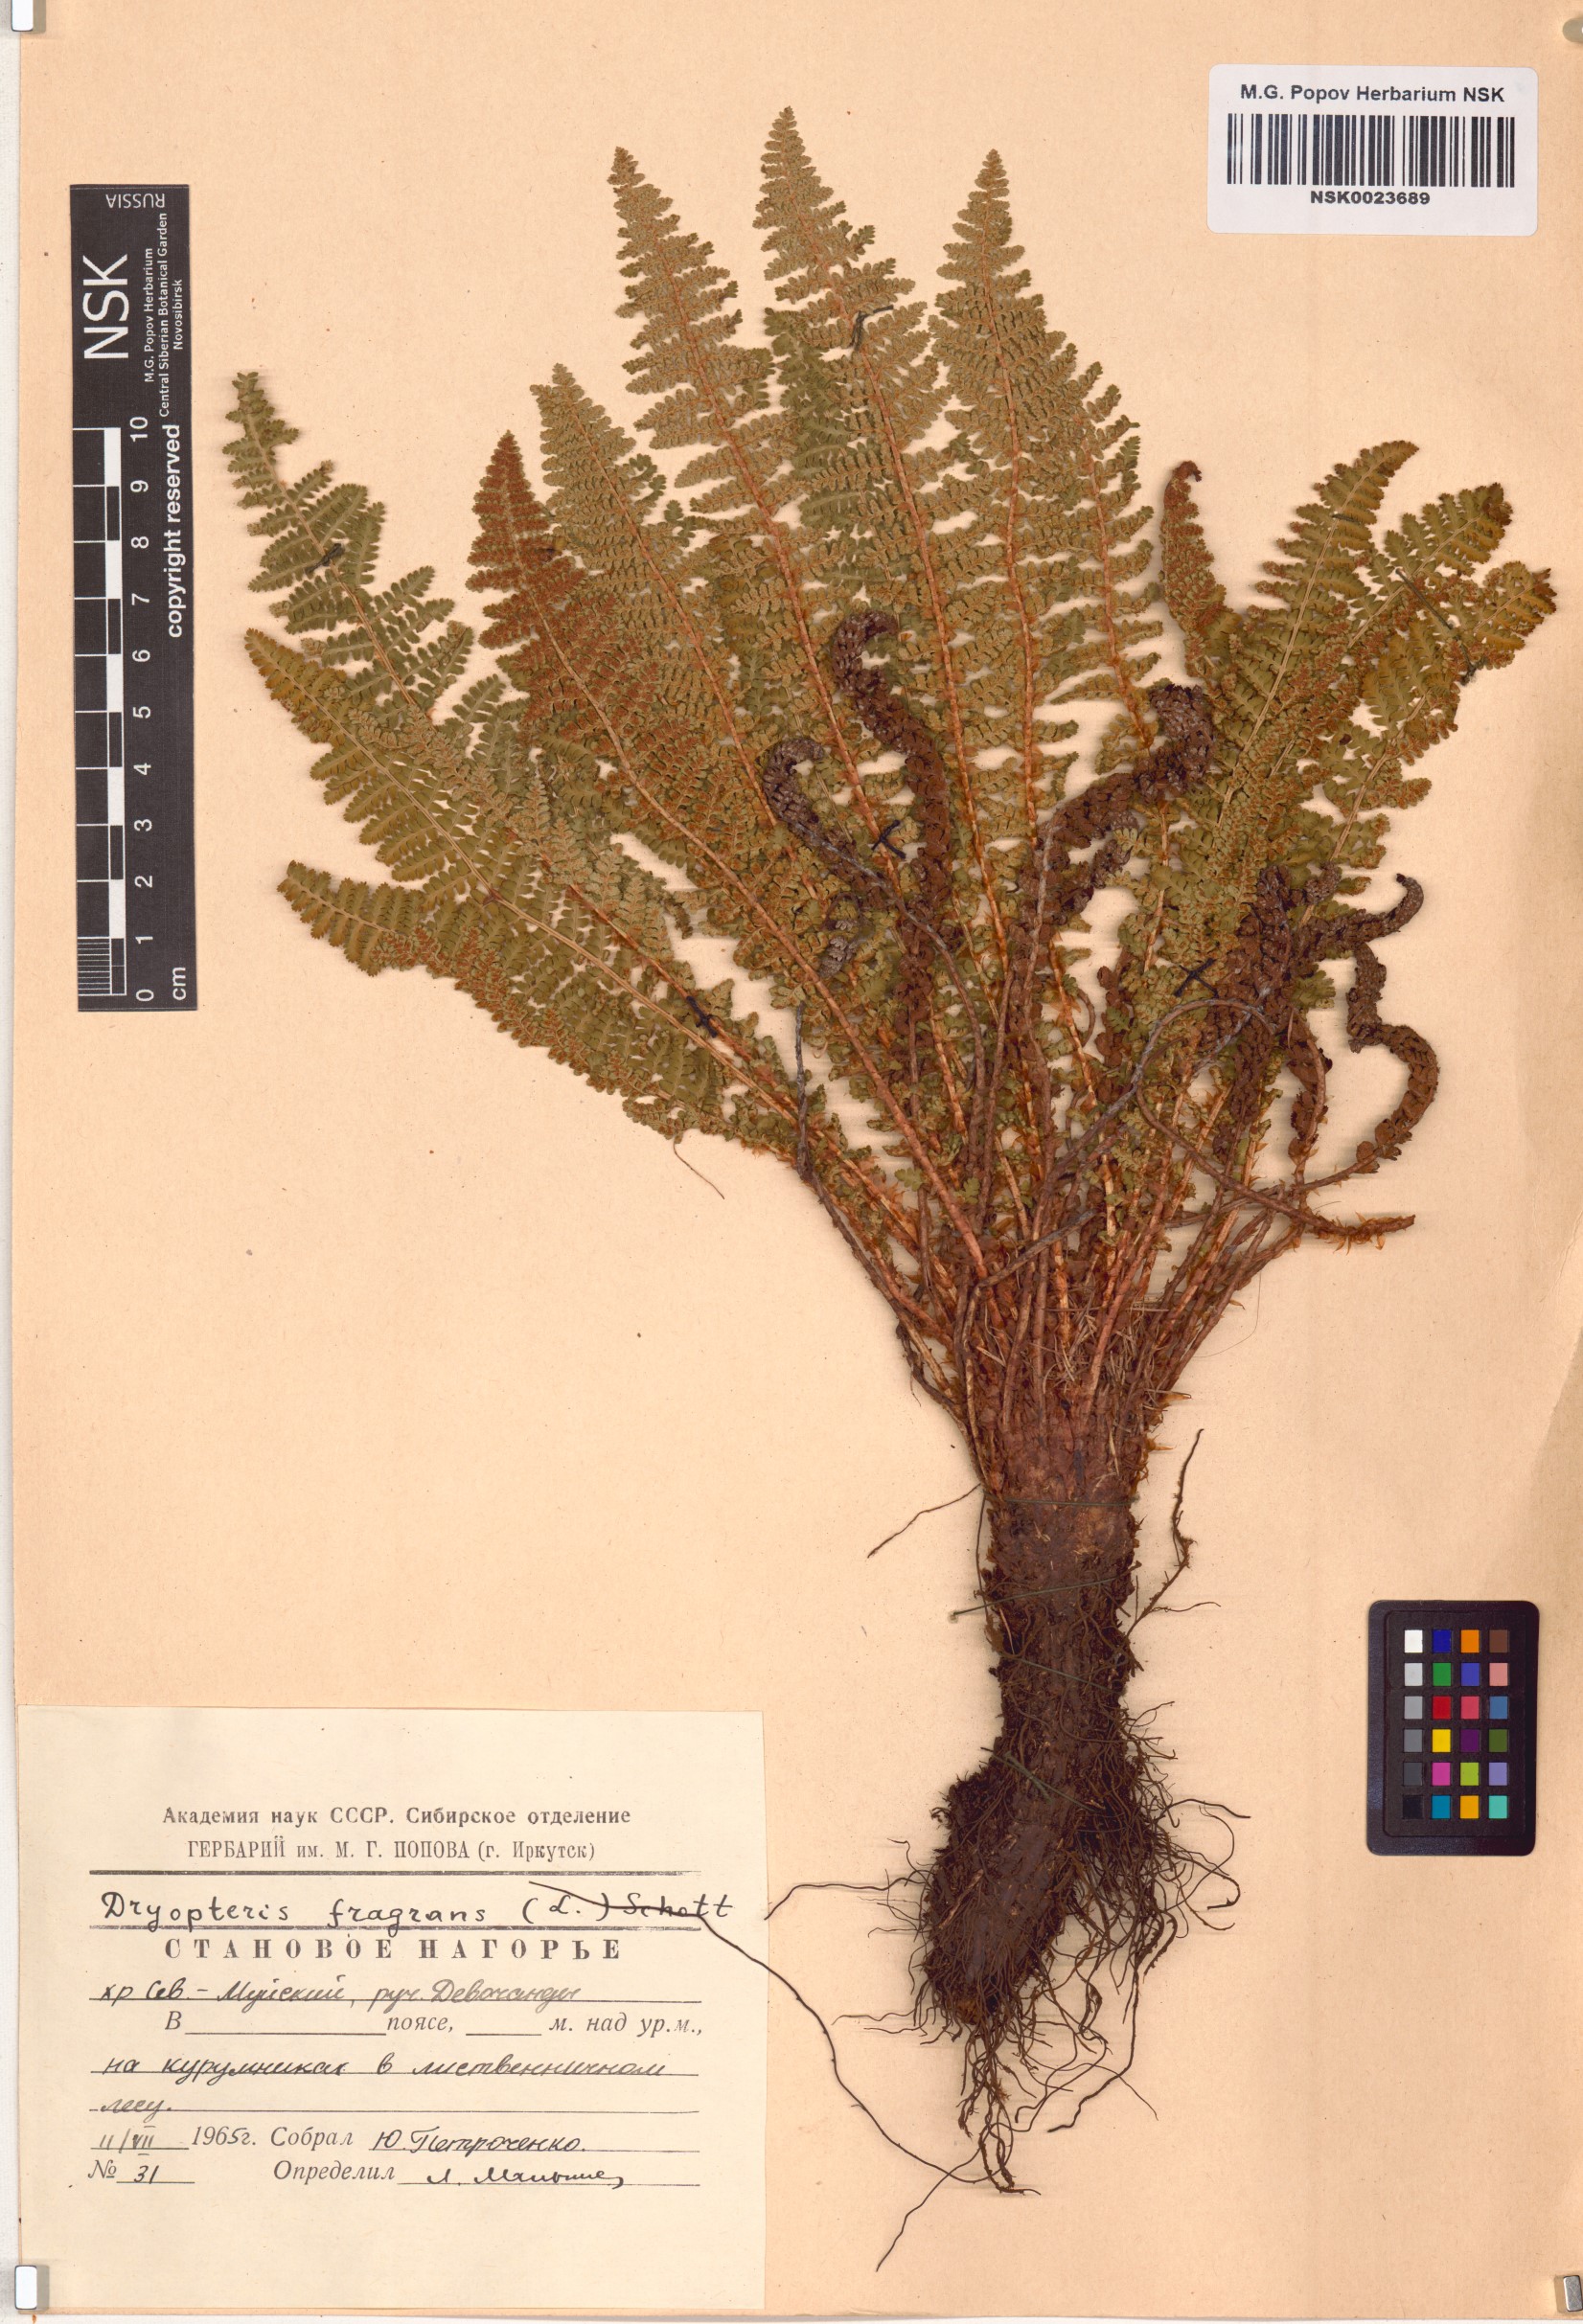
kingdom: Plantae
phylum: Tracheophyta
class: Polypodiopsida
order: Polypodiales
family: Dryopteridaceae
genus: Dryopteris
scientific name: Dryopteris fragrans
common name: Fragrant wood fern
